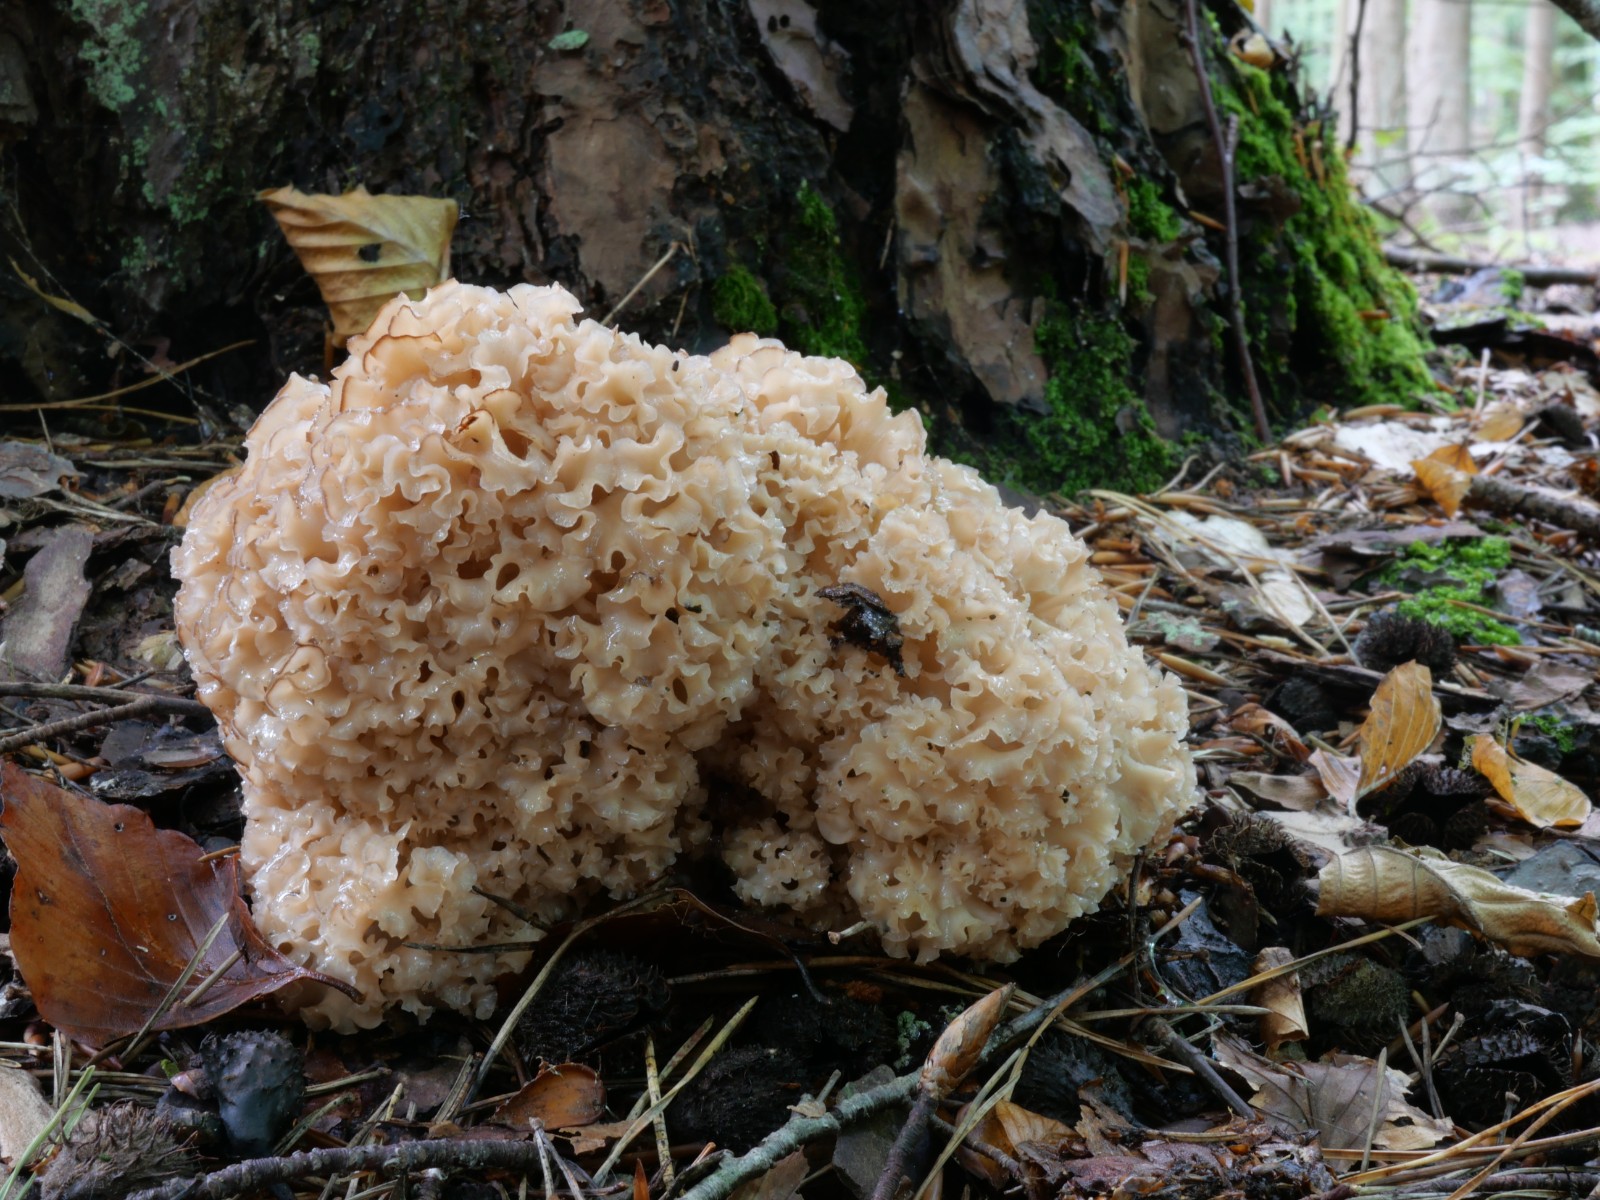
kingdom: Fungi
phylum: Basidiomycota
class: Agaricomycetes
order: Polyporales
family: Sparassidaceae
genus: Sparassis
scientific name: Sparassis crispa
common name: kruset blomkålssvamp
